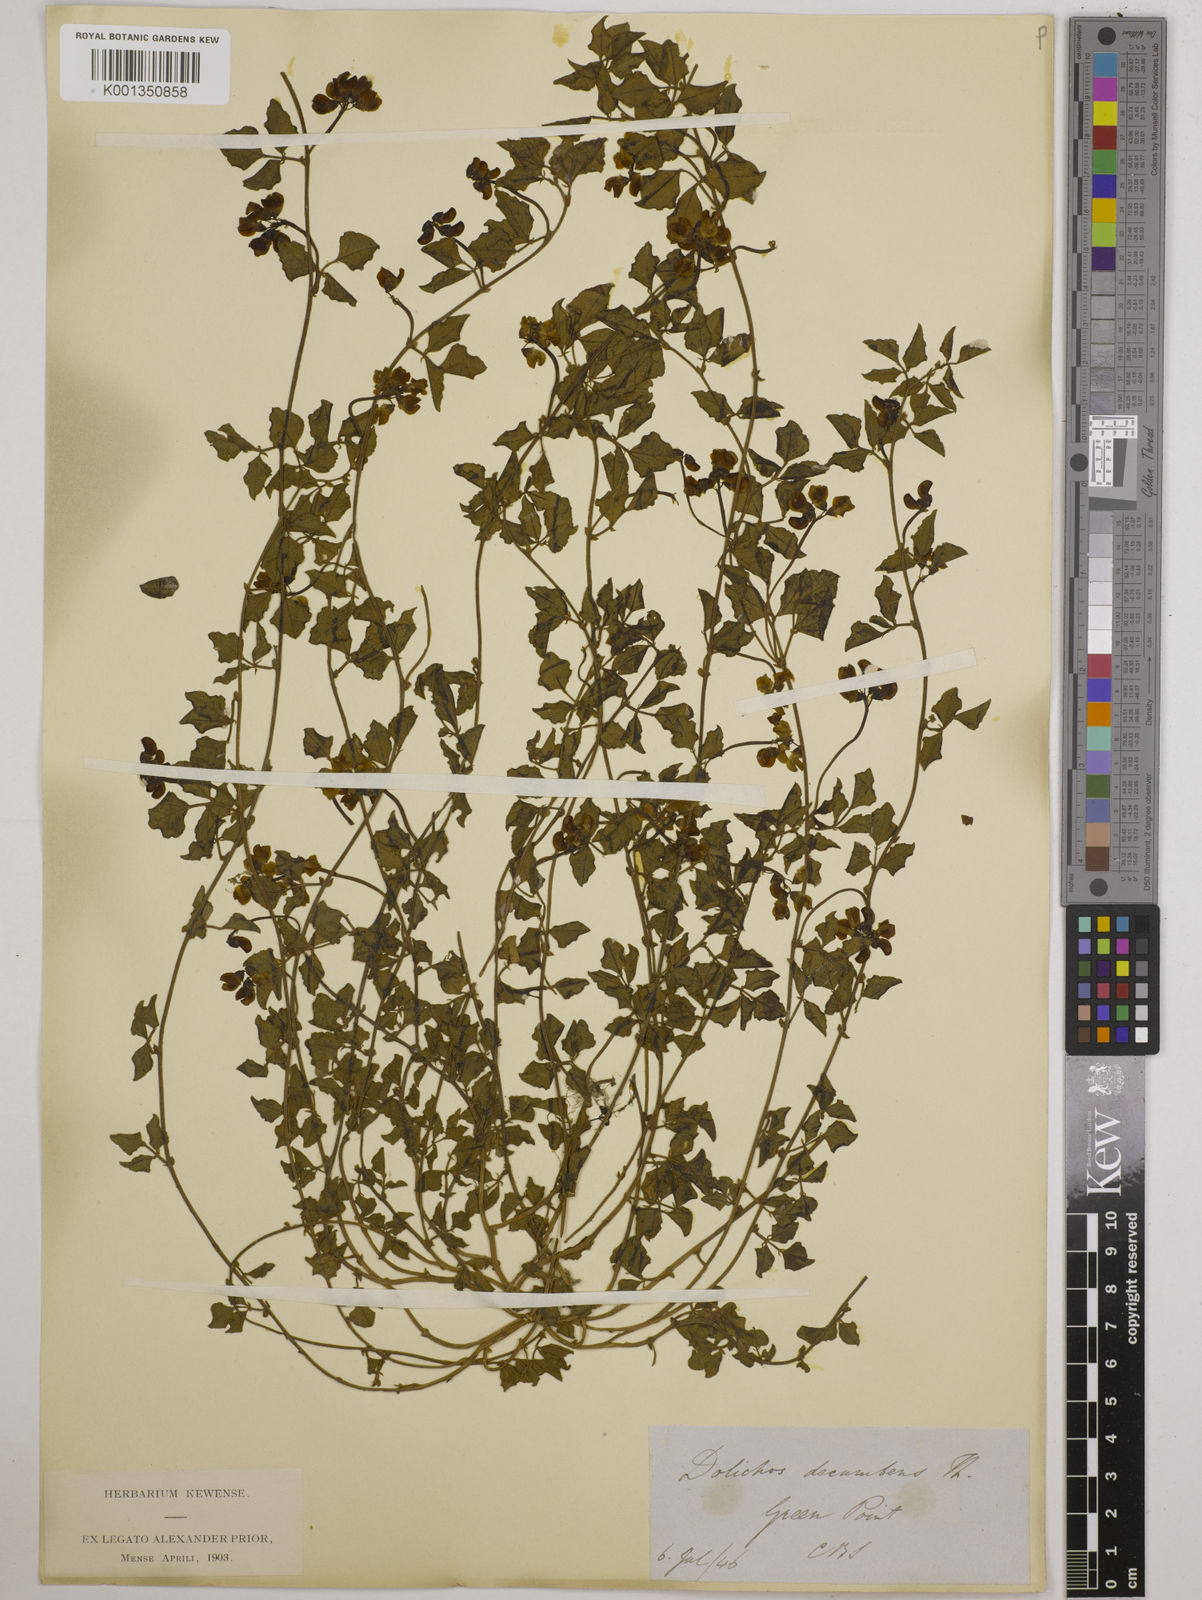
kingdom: Plantae
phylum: Tracheophyta
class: Magnoliopsida
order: Fabales
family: Fabaceae
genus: Dolichos
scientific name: Dolichos decumbens
